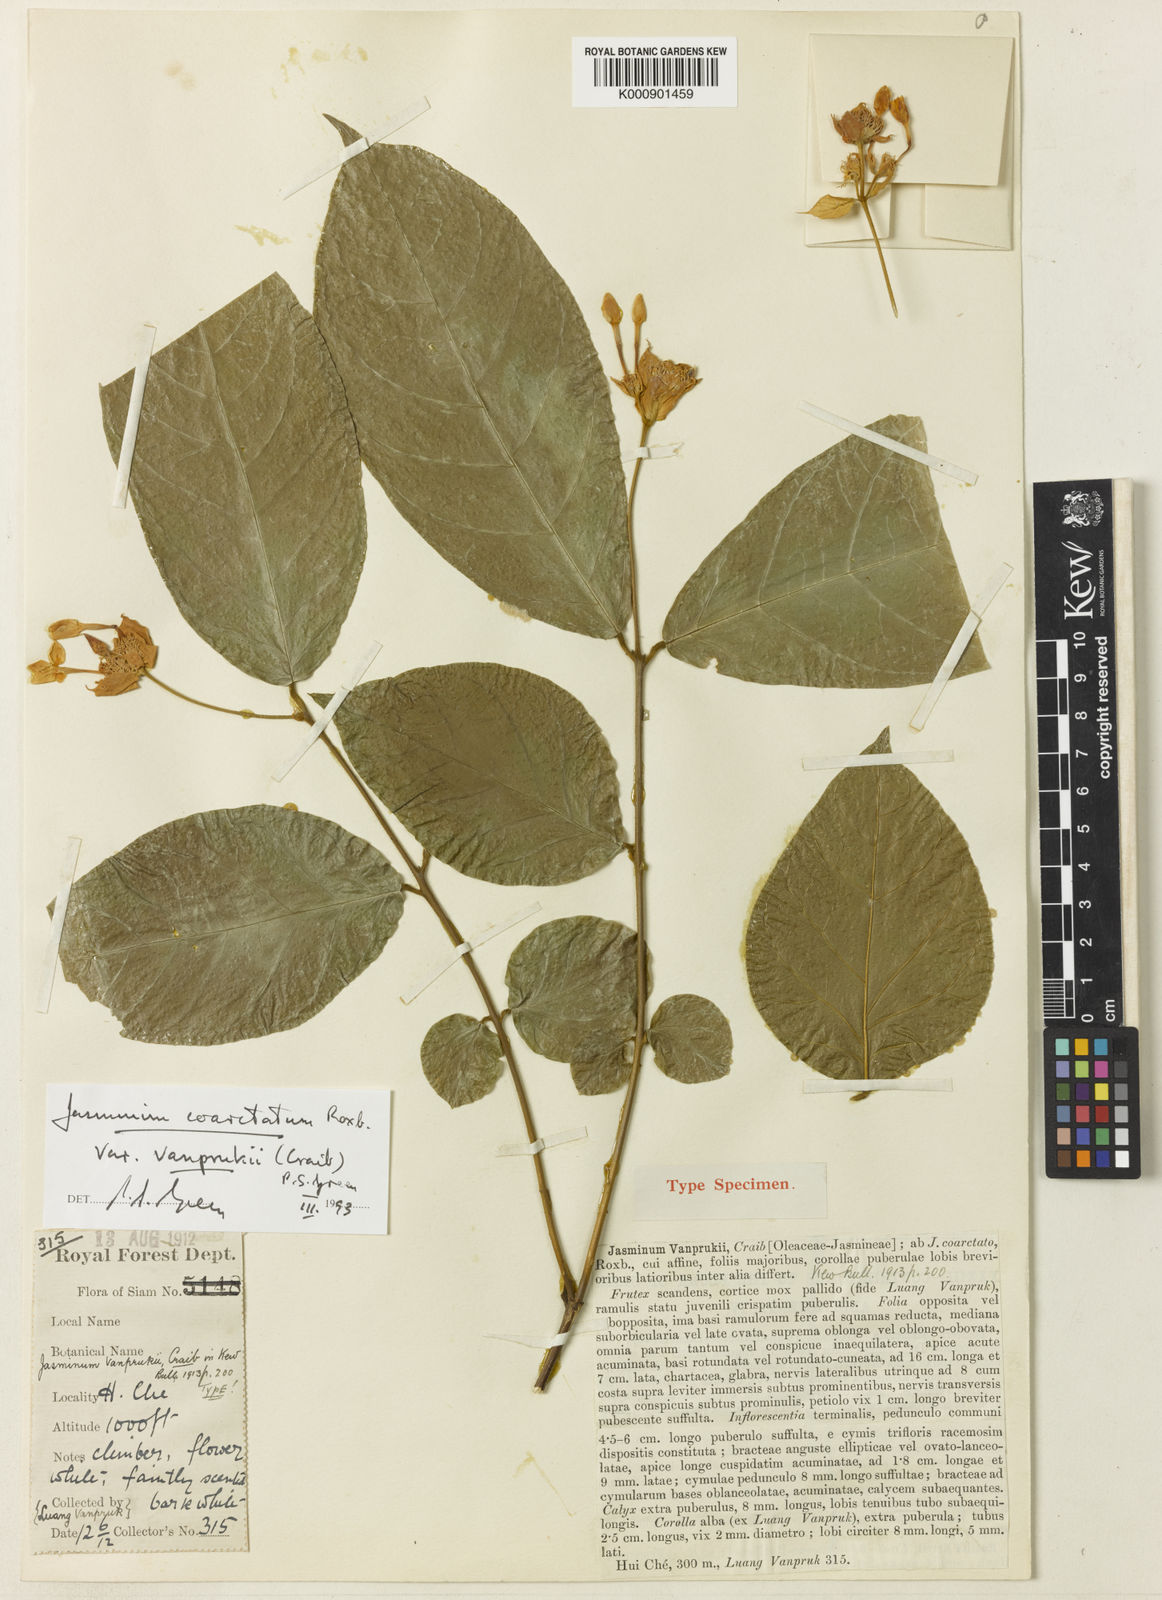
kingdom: Plantae
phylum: Tracheophyta
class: Magnoliopsida
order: Lamiales
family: Oleaceae
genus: Jasminum
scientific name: Jasminum coarctatum
